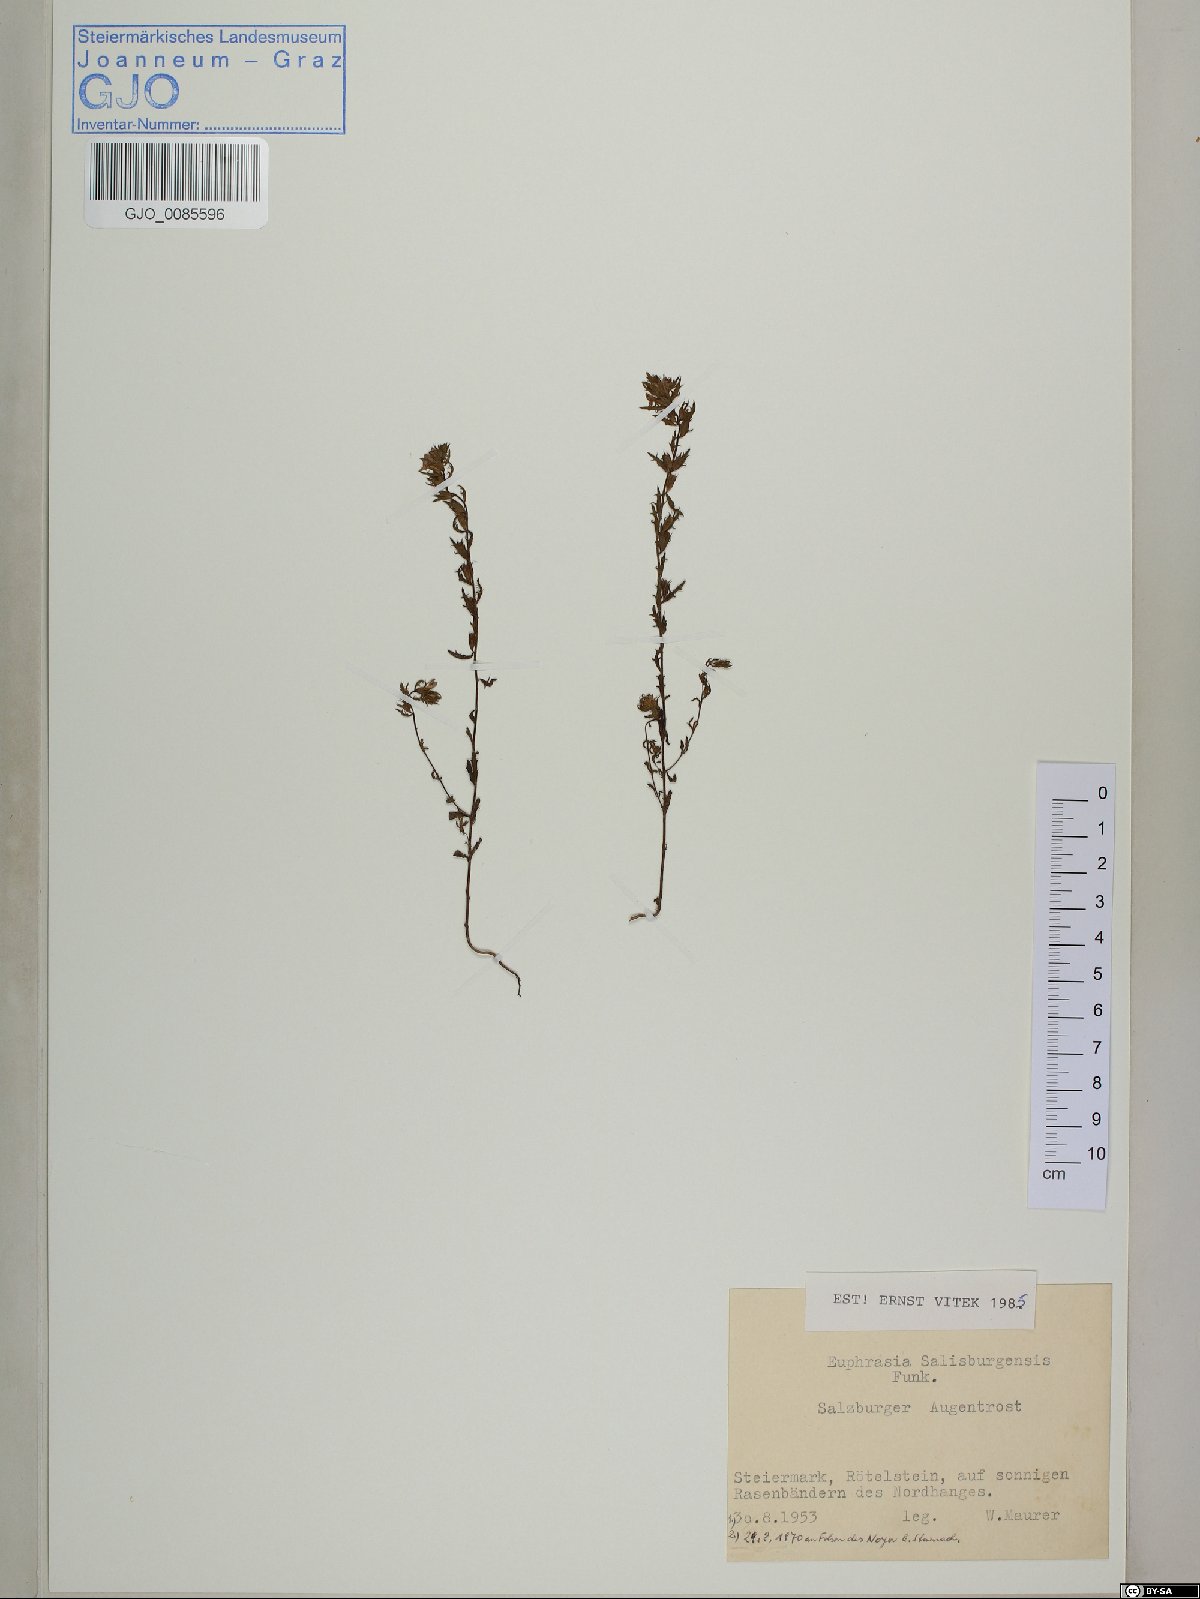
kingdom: Plantae
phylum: Tracheophyta
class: Magnoliopsida
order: Lamiales
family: Orobanchaceae
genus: Euphrasia
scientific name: Euphrasia salisburgensis
